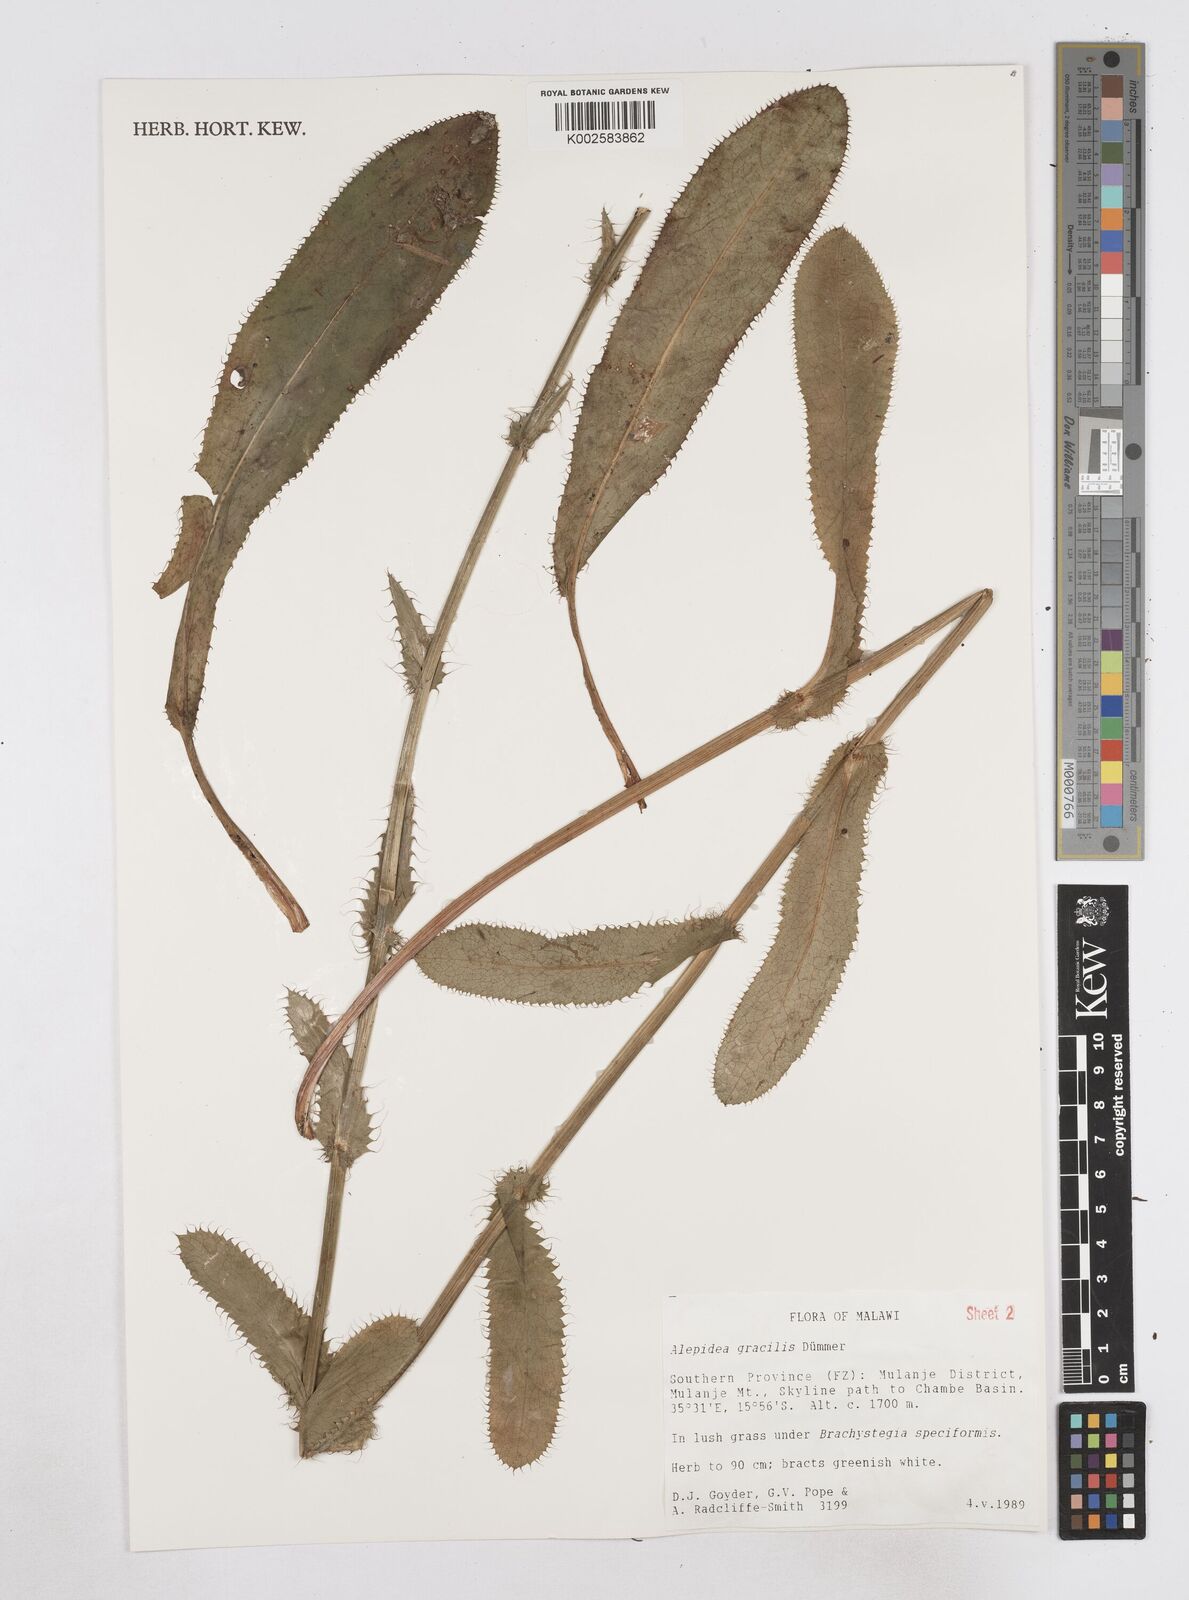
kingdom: Plantae
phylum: Tracheophyta
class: Magnoliopsida
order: Apiales
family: Apiaceae
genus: Alepidea
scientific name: Alepidea peduncularis
